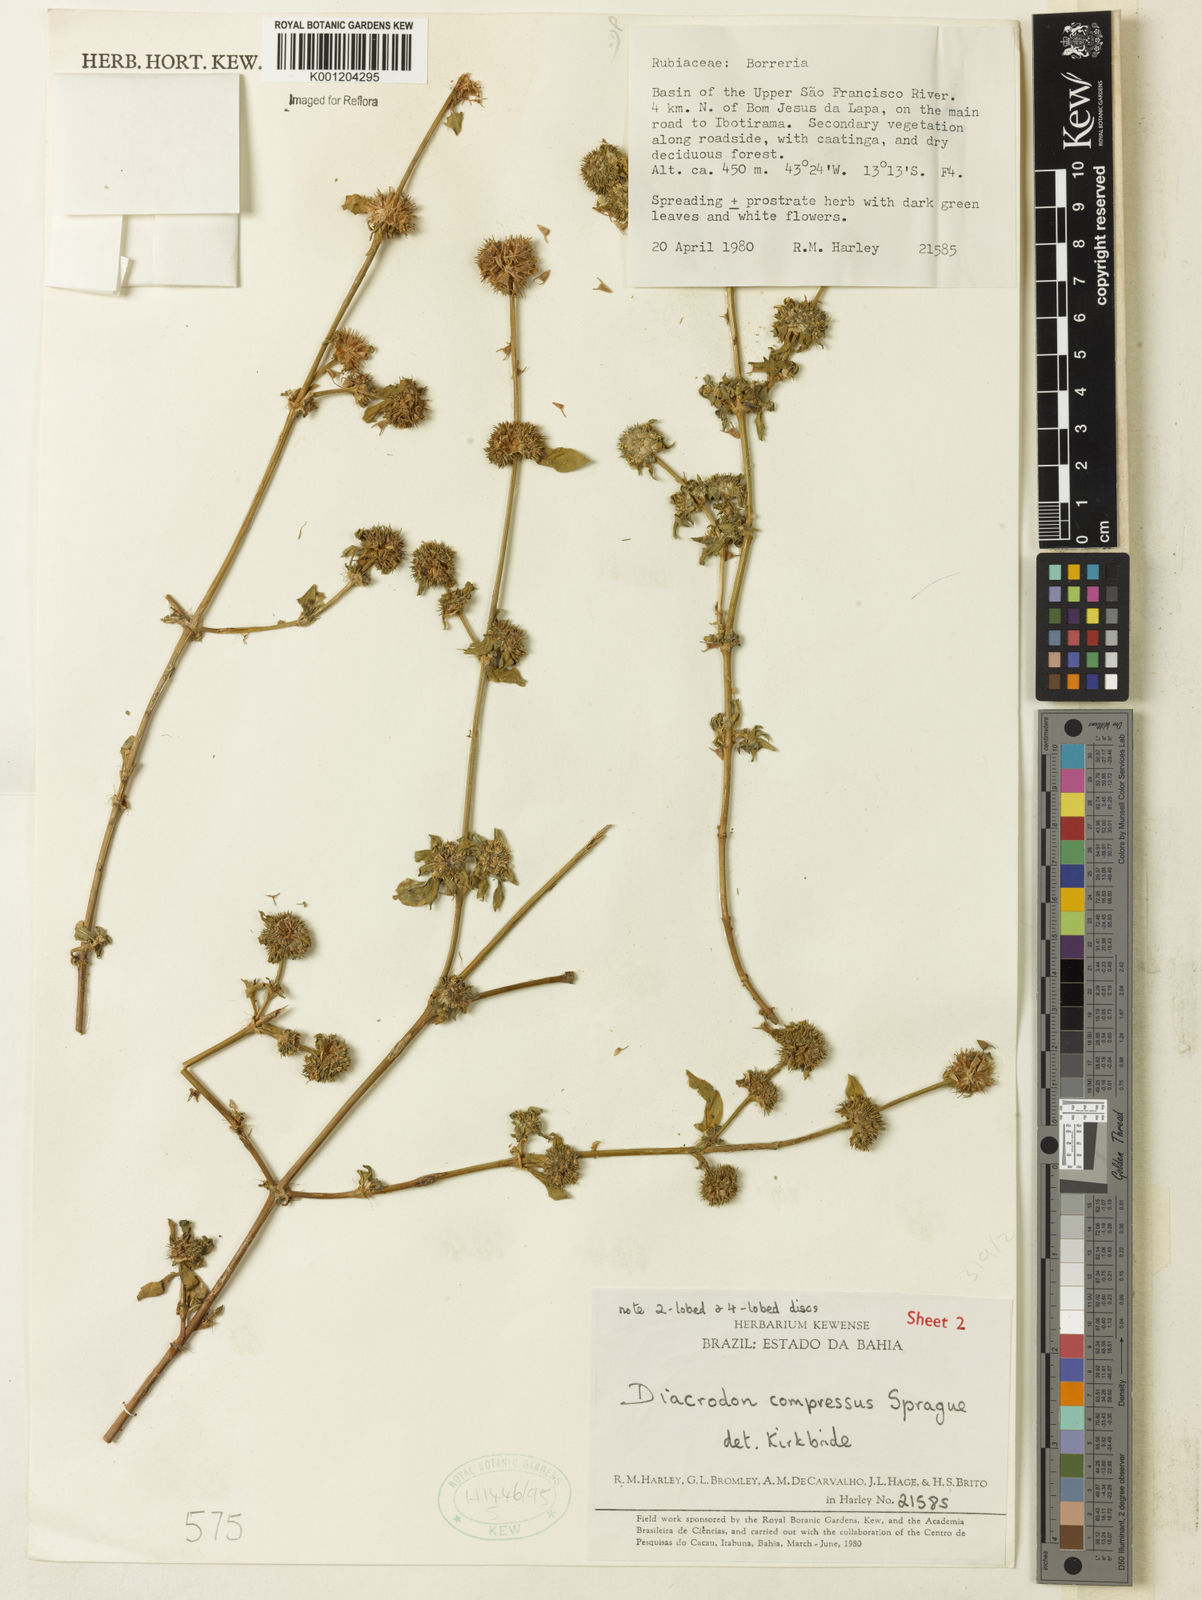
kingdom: Plantae
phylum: Tracheophyta
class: Magnoliopsida
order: Gentianales
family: Rubiaceae
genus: Diacrodon
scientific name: Diacrodon compressus
